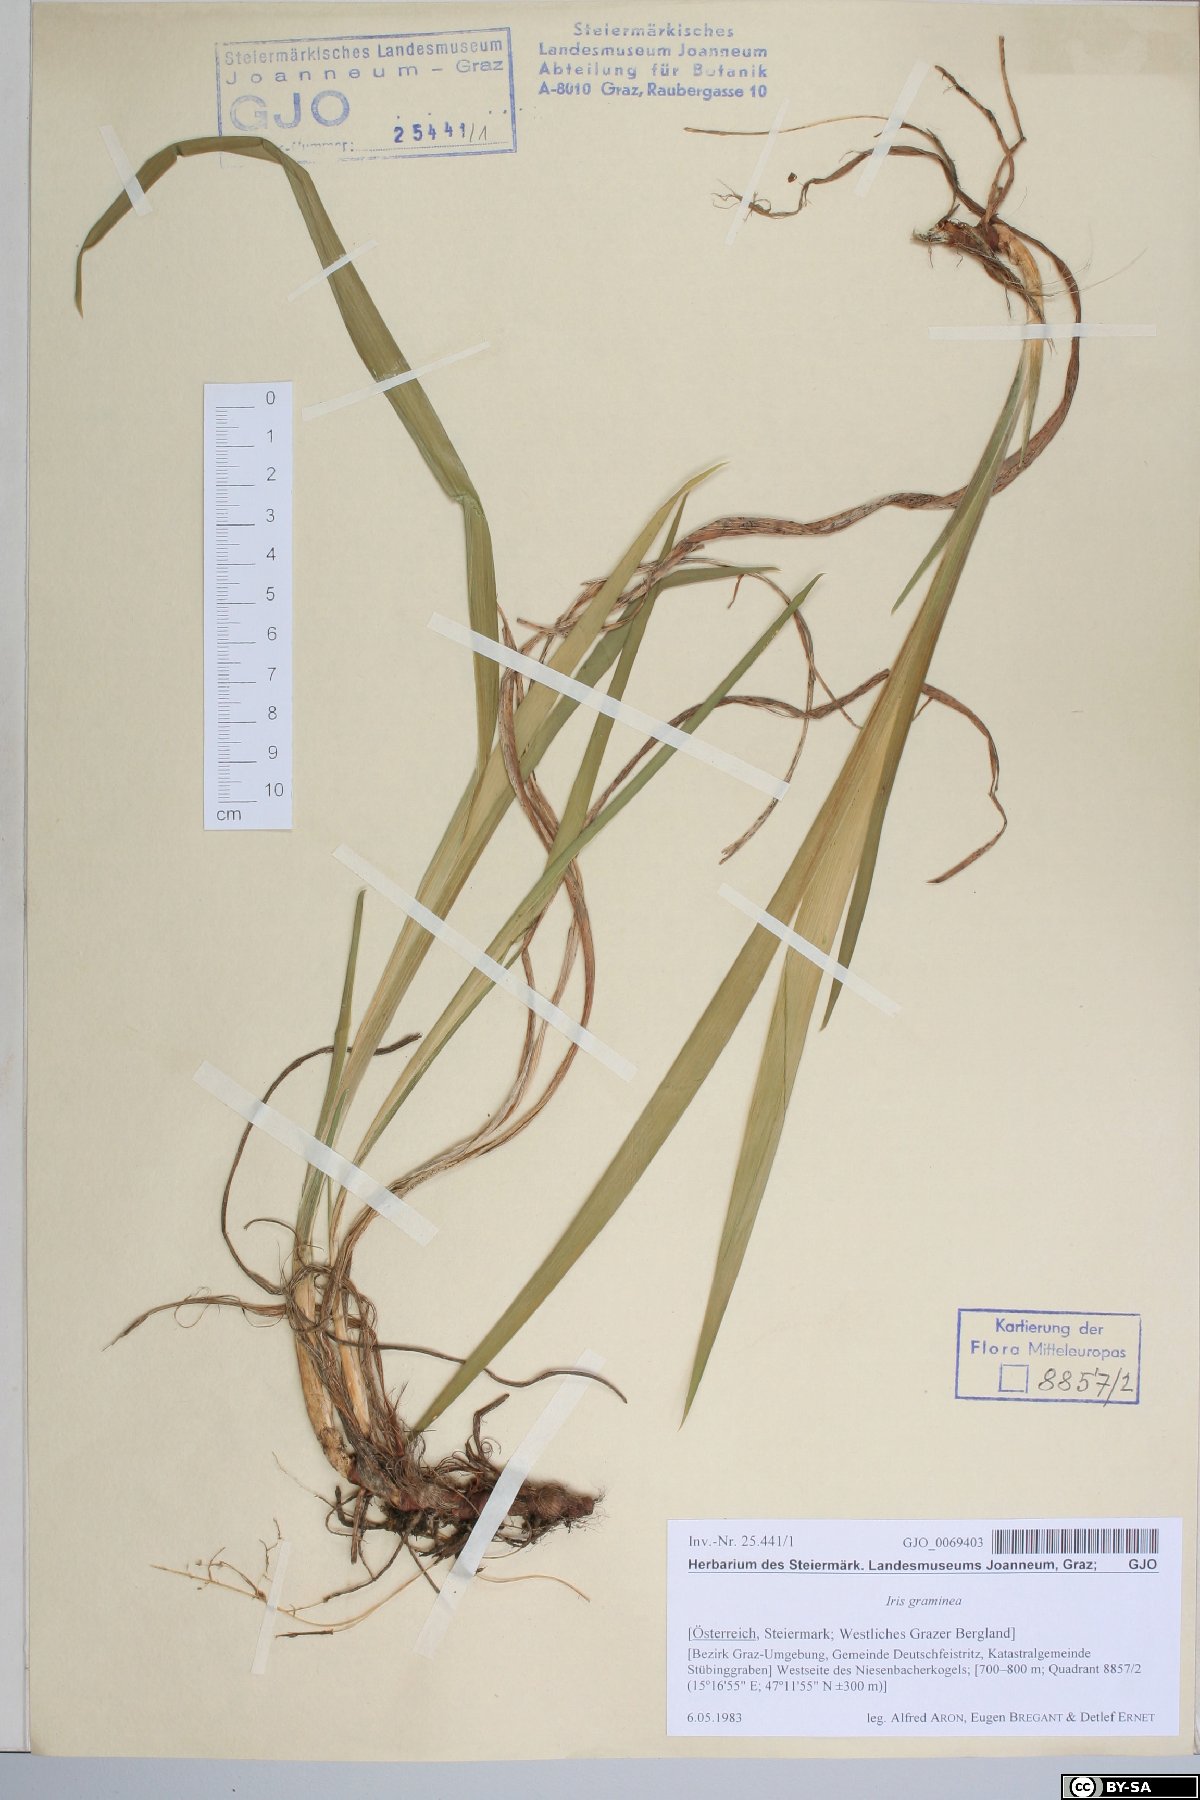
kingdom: Plantae
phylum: Tracheophyta
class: Liliopsida
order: Asparagales
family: Iridaceae
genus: Iris
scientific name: Iris graminea
